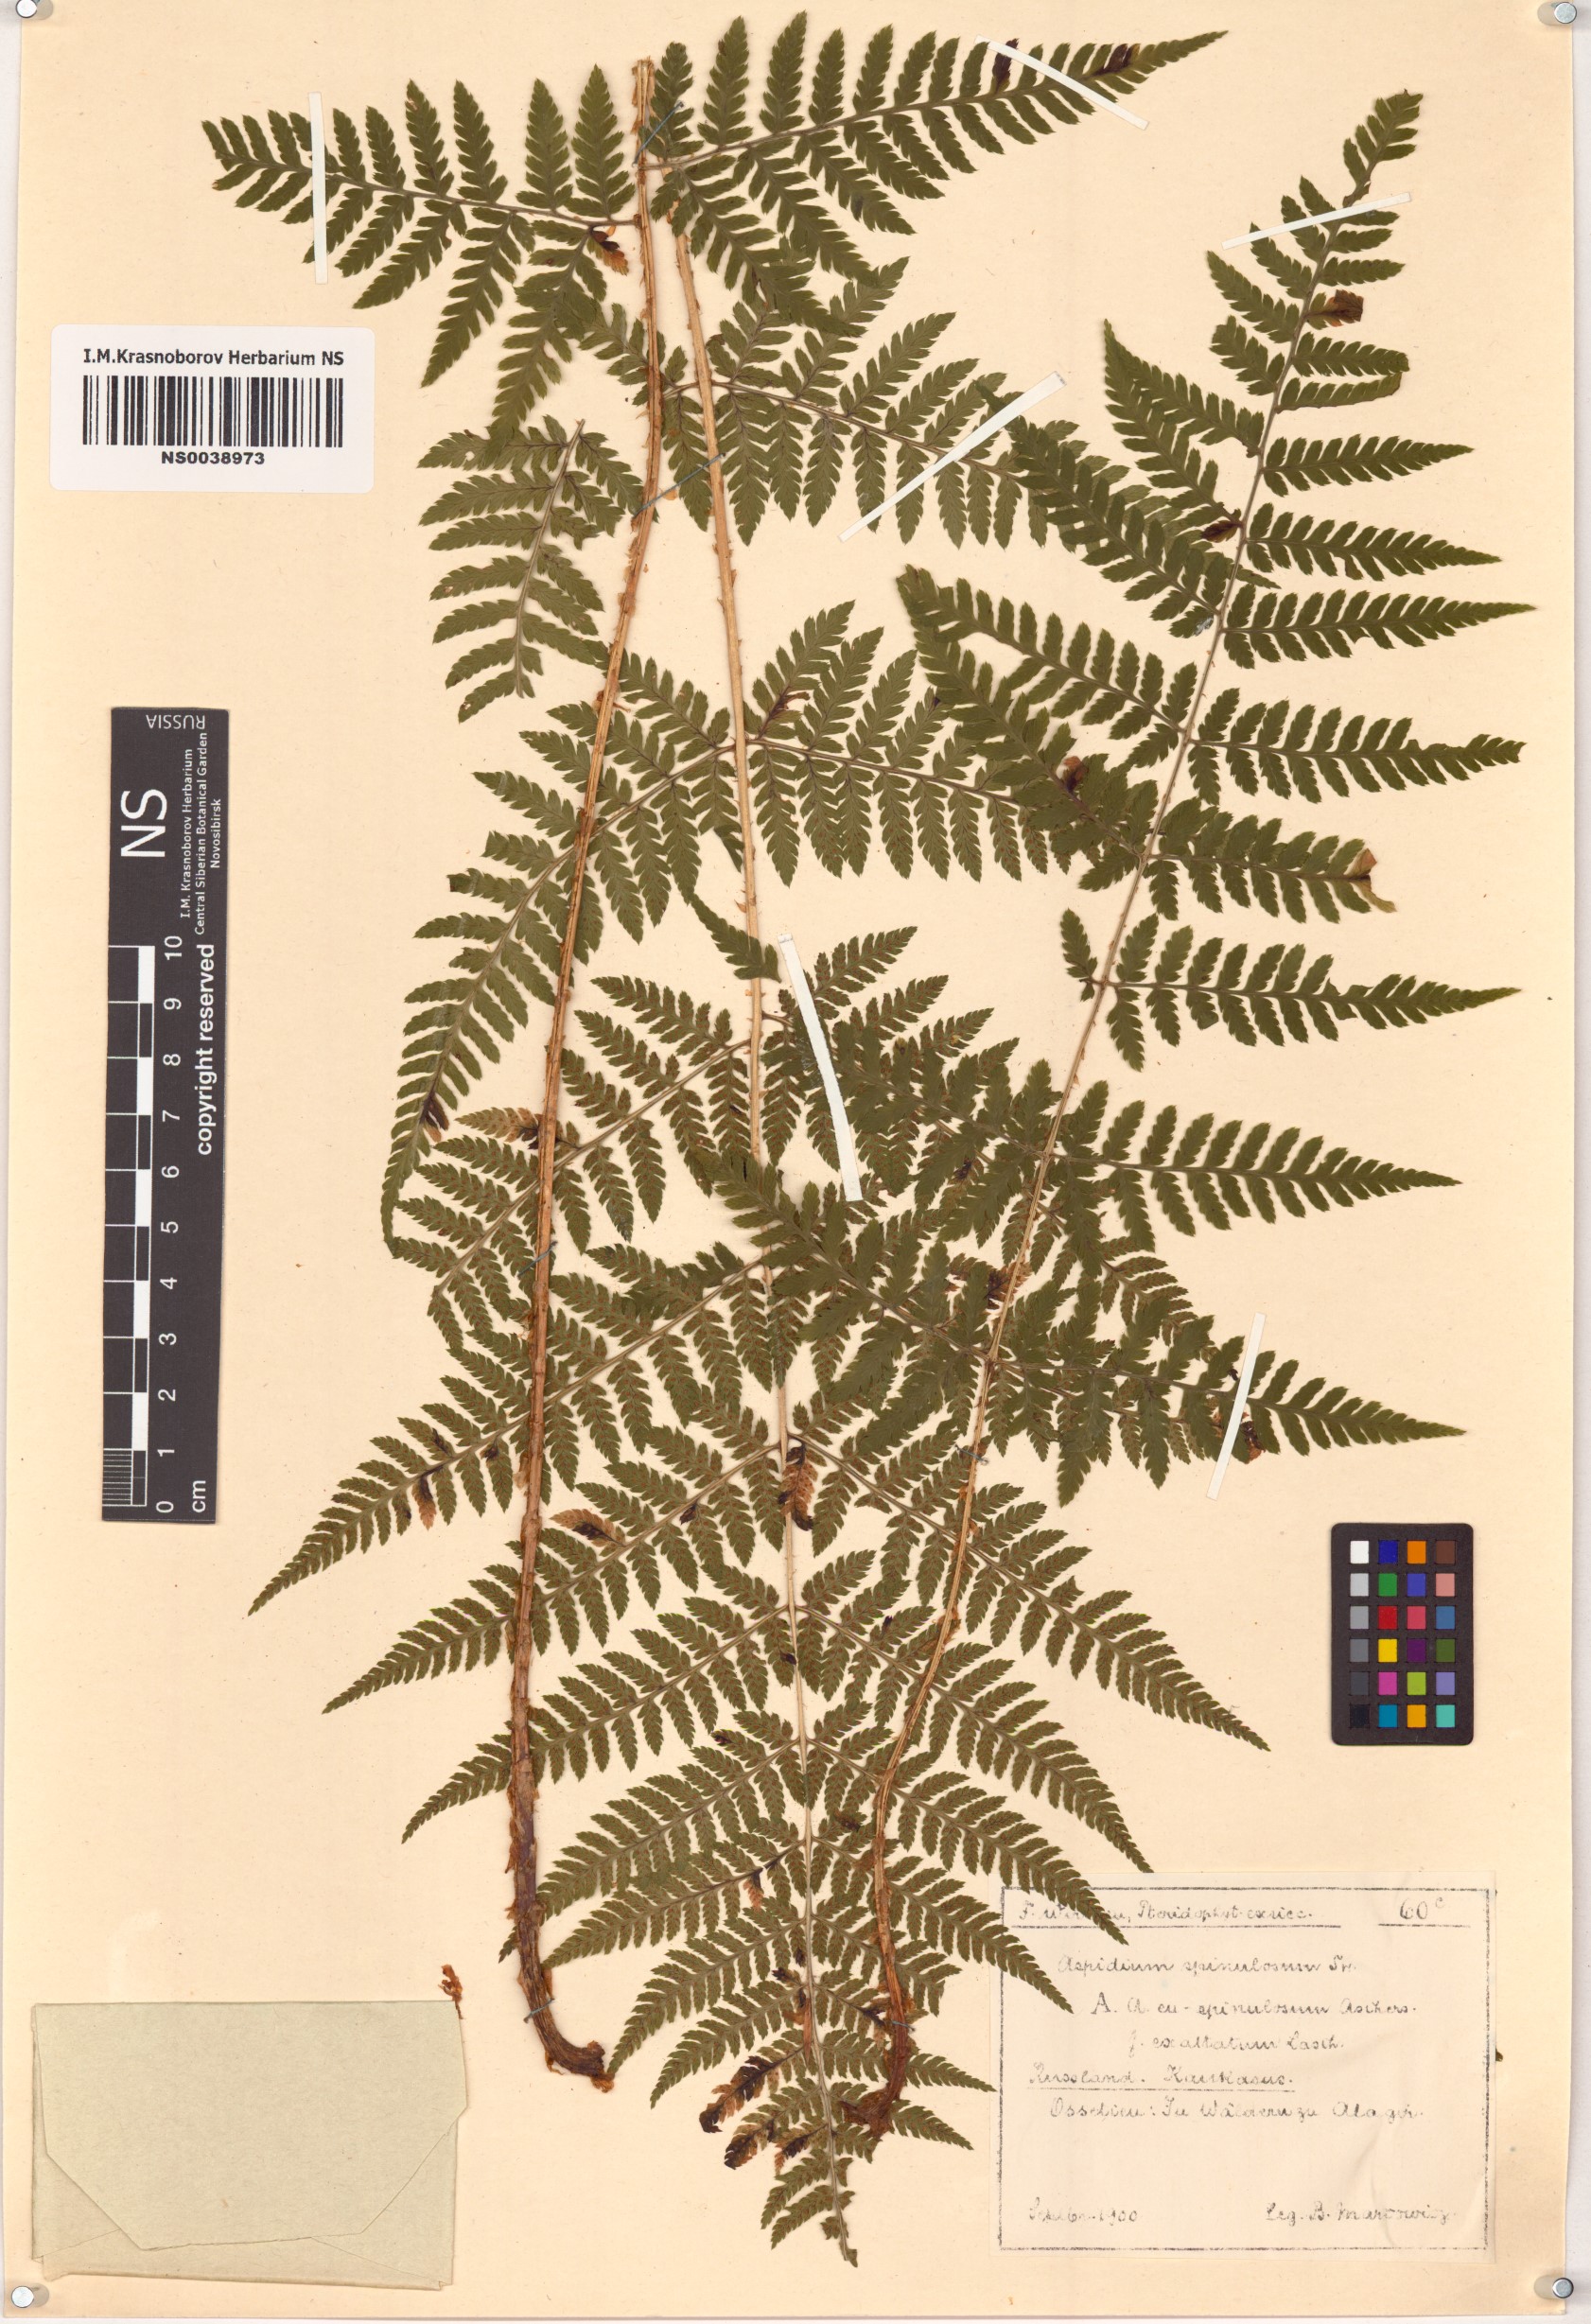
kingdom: Plantae
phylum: Tracheophyta
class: Polypodiopsida
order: Polypodiales
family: Dryopteridaceae
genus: Dryopteris
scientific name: Dryopteris carthusiana
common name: Narrow buckler-fern
